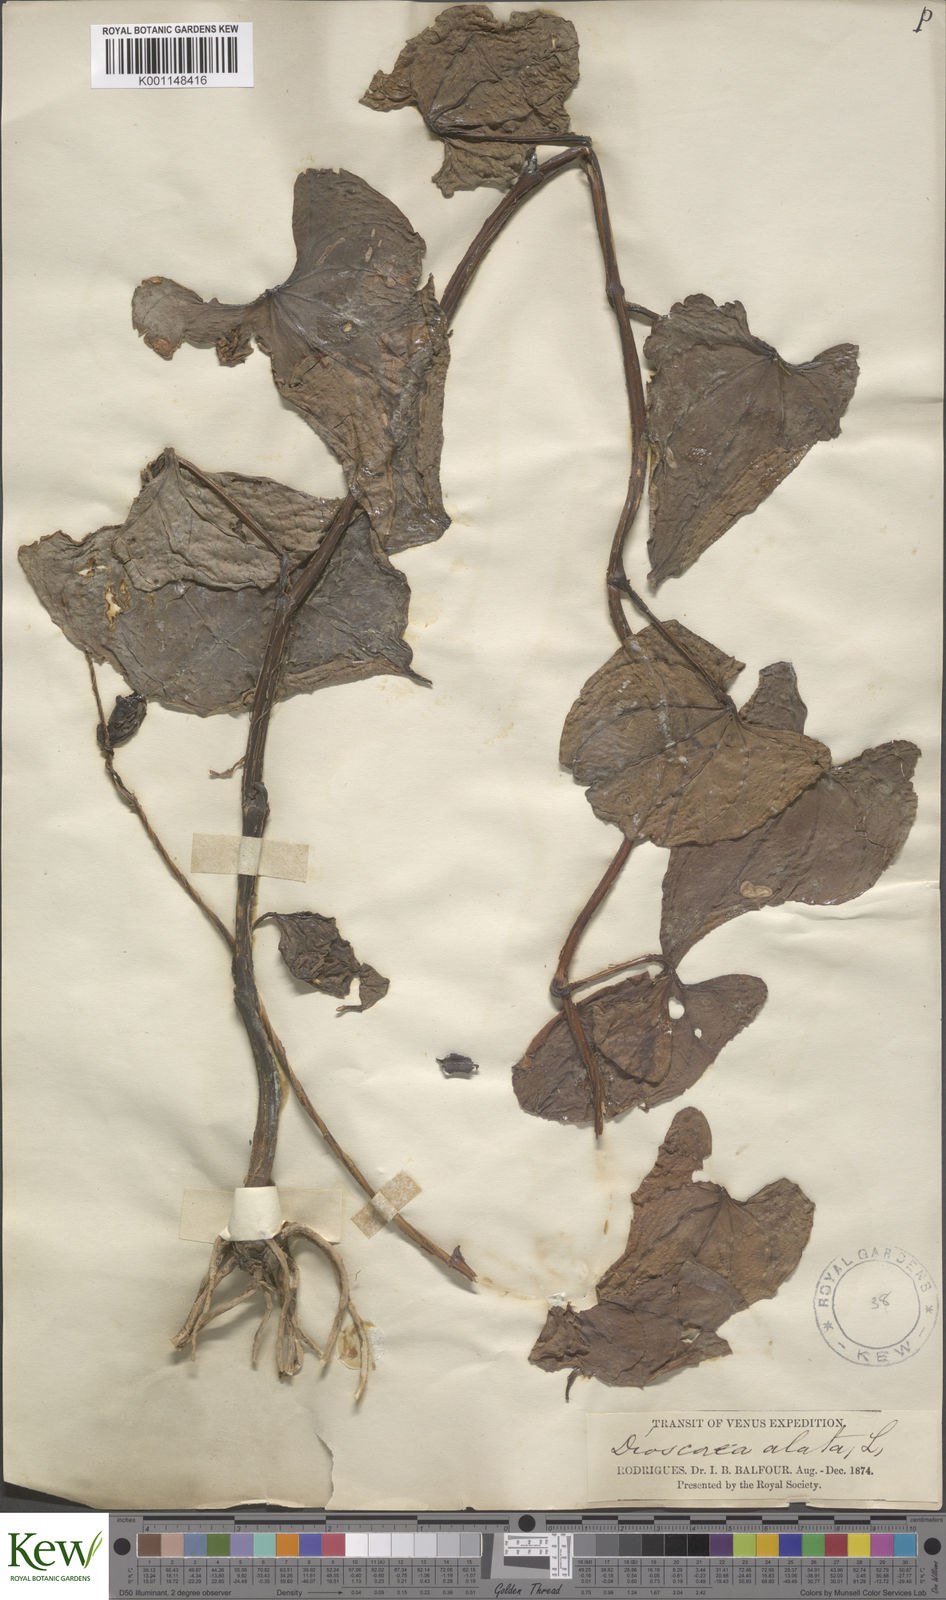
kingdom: Plantae
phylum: Tracheophyta
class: Liliopsida
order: Dioscoreales
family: Dioscoreaceae
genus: Dioscorea
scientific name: Dioscorea alata
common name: Water yam
